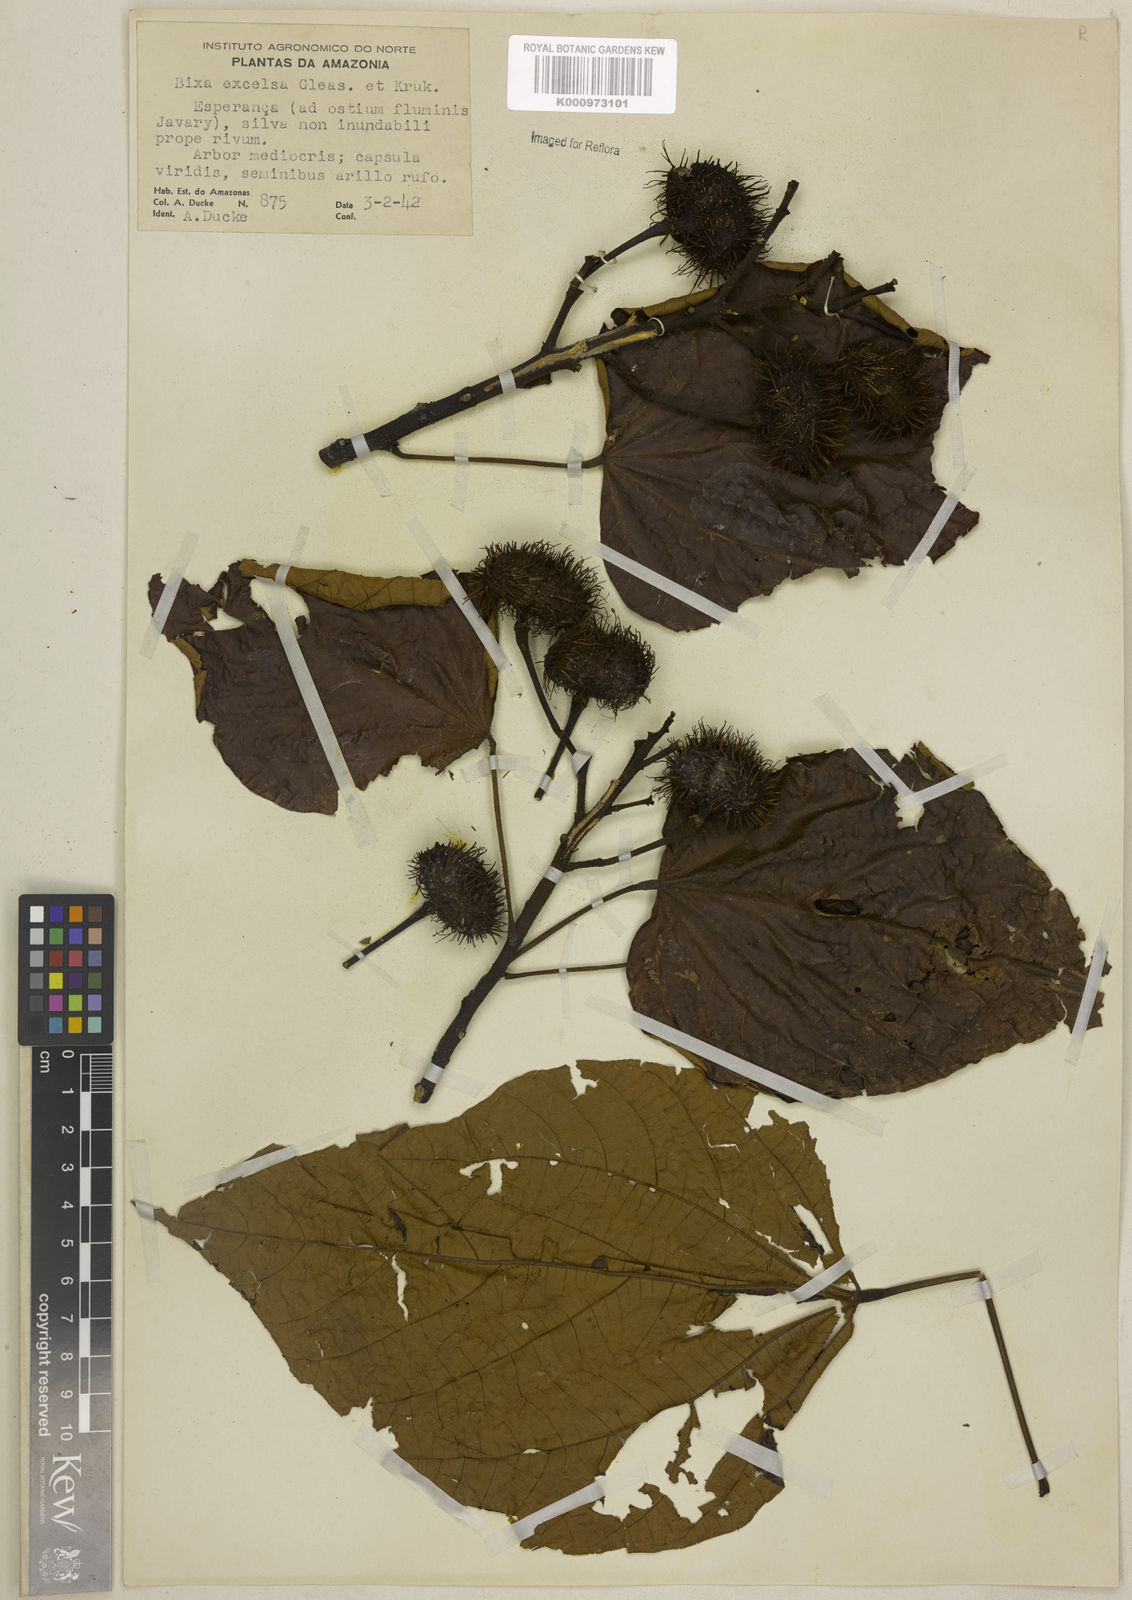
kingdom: Plantae
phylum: Tracheophyta
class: Magnoliopsida
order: Malvales
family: Bixaceae
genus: Bixa
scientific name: Bixa excelsa
